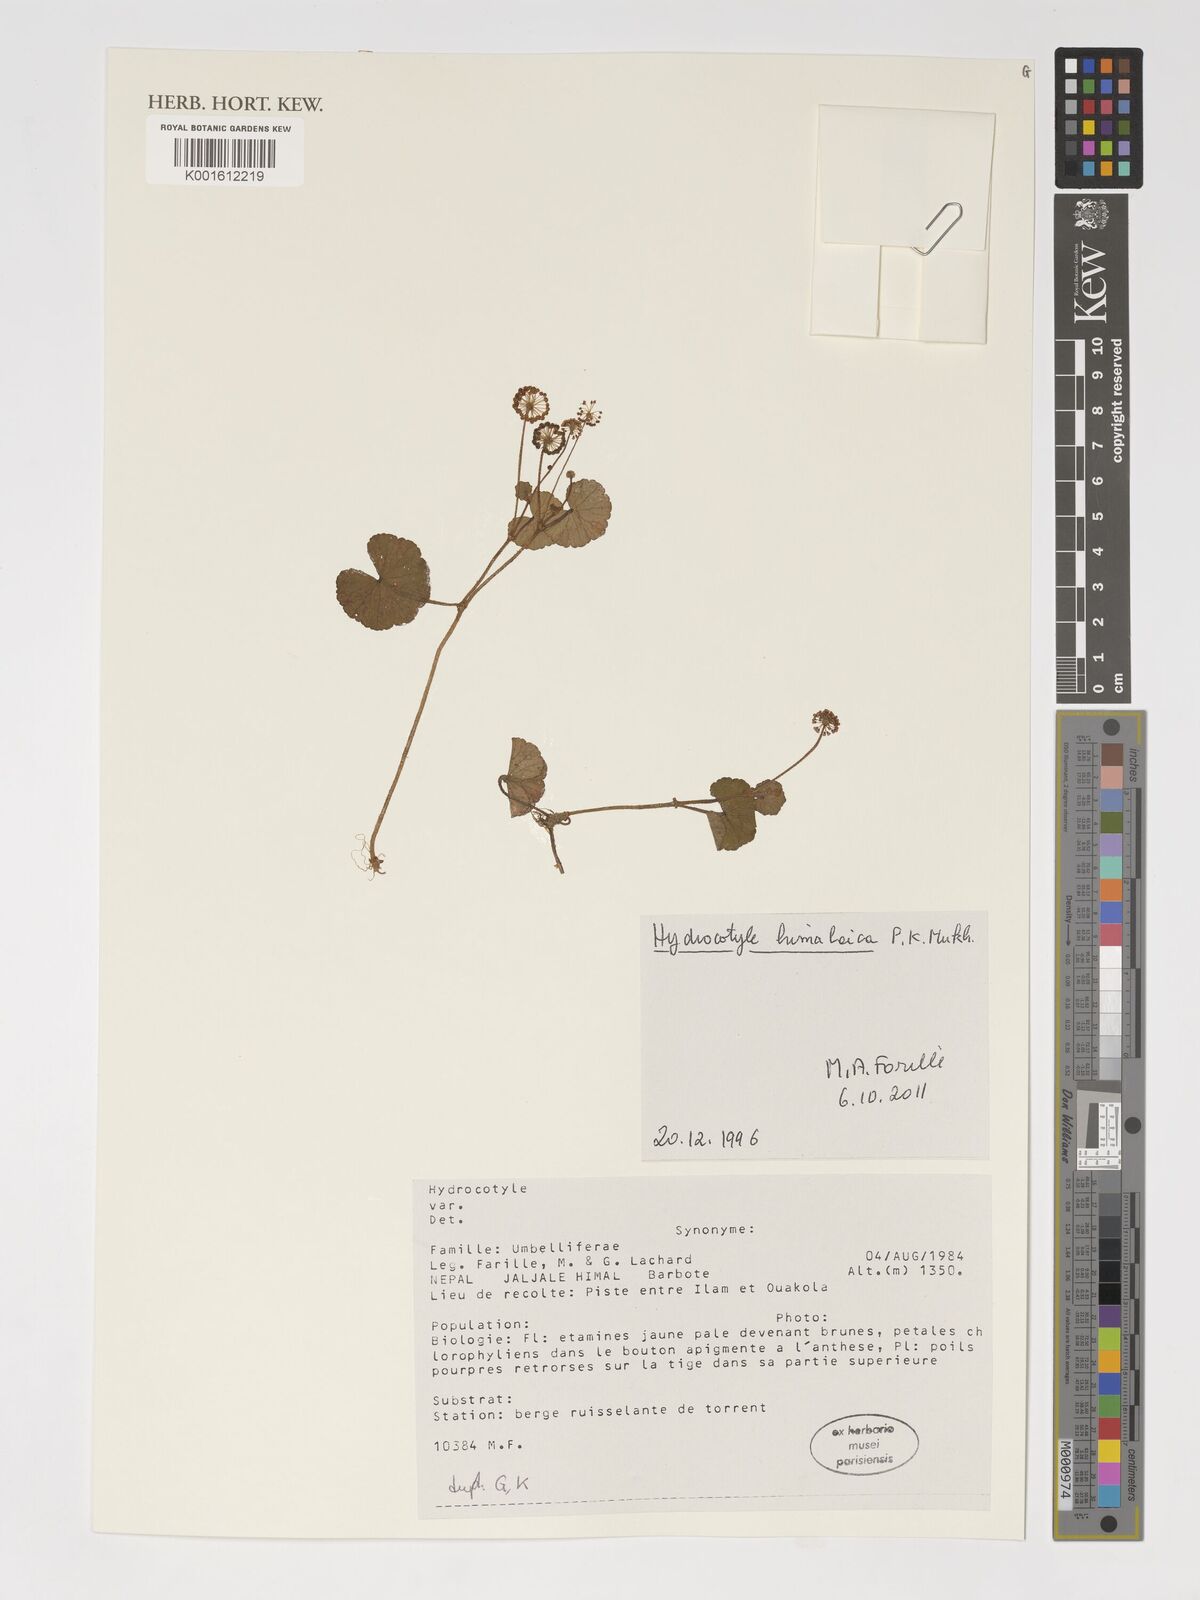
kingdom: Plantae
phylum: Tracheophyta
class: Magnoliopsida
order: Apiales
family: Araliaceae
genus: Hydrocotyle
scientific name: Hydrocotyle himalaica
